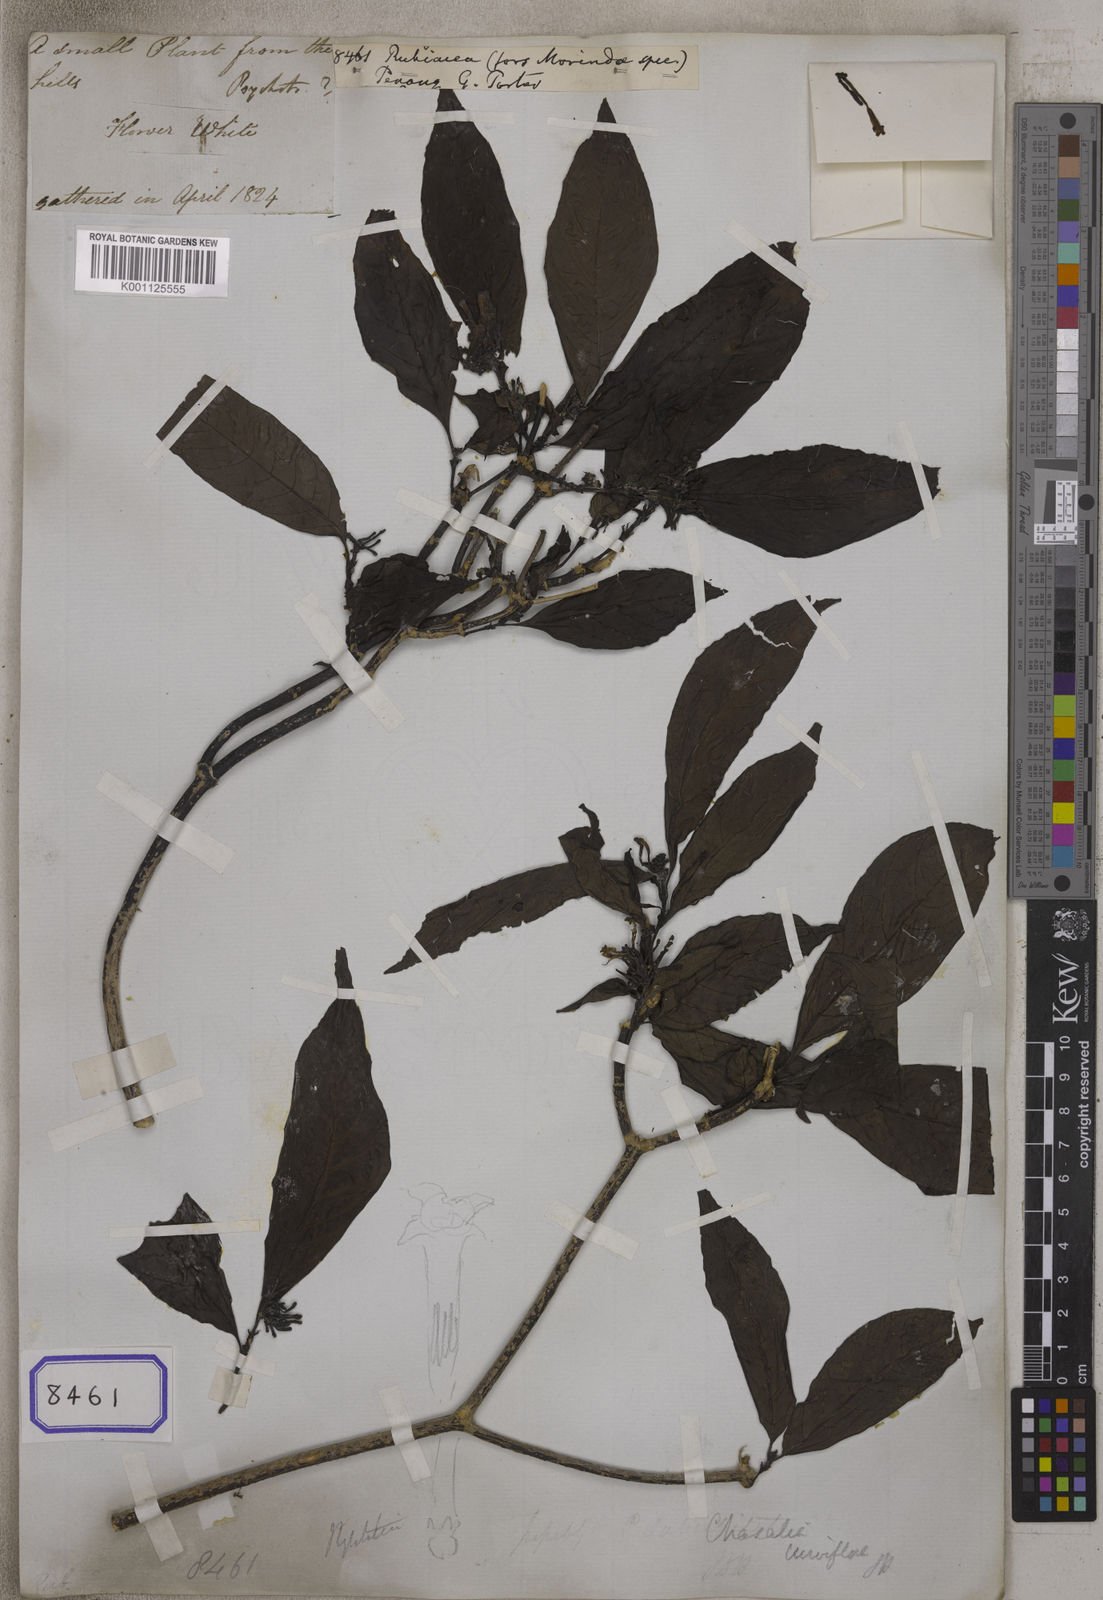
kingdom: Plantae
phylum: Tracheophyta
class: Magnoliopsida
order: Gentianales
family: Rubiaceae
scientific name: Rubiaceae
